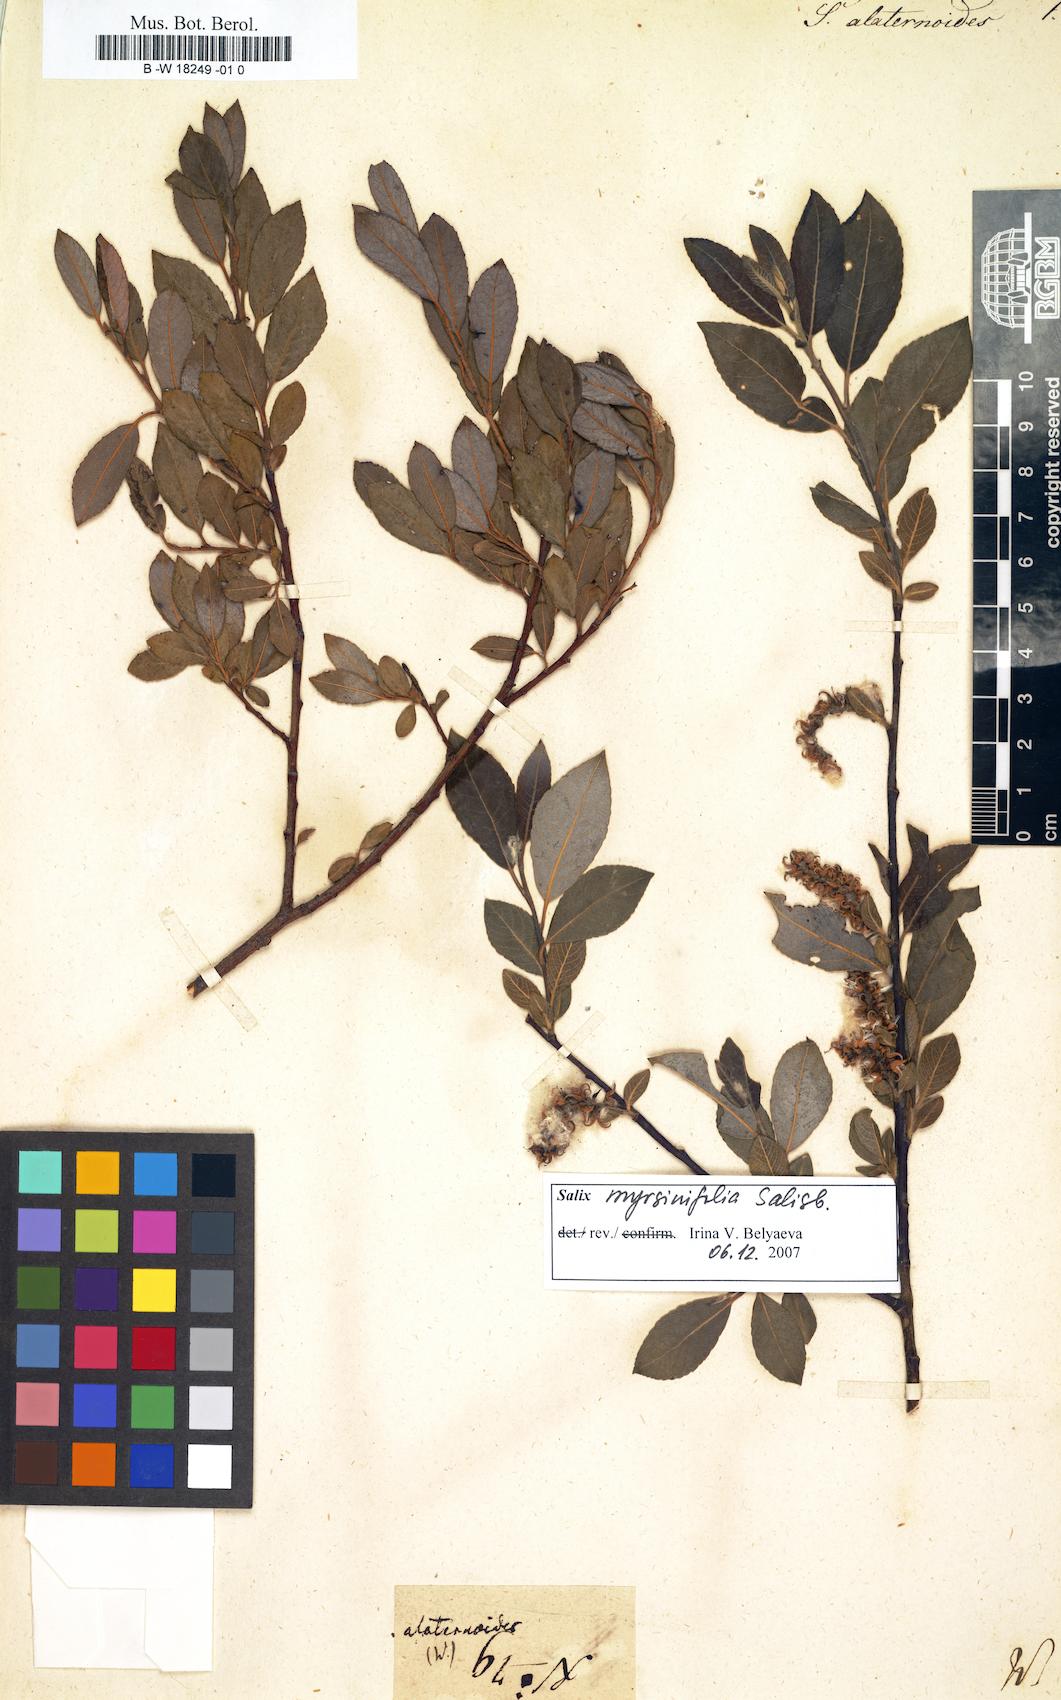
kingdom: Plantae
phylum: Tracheophyta
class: Magnoliopsida
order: Malpighiales
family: Salicaceae
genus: Salix
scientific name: Salix
